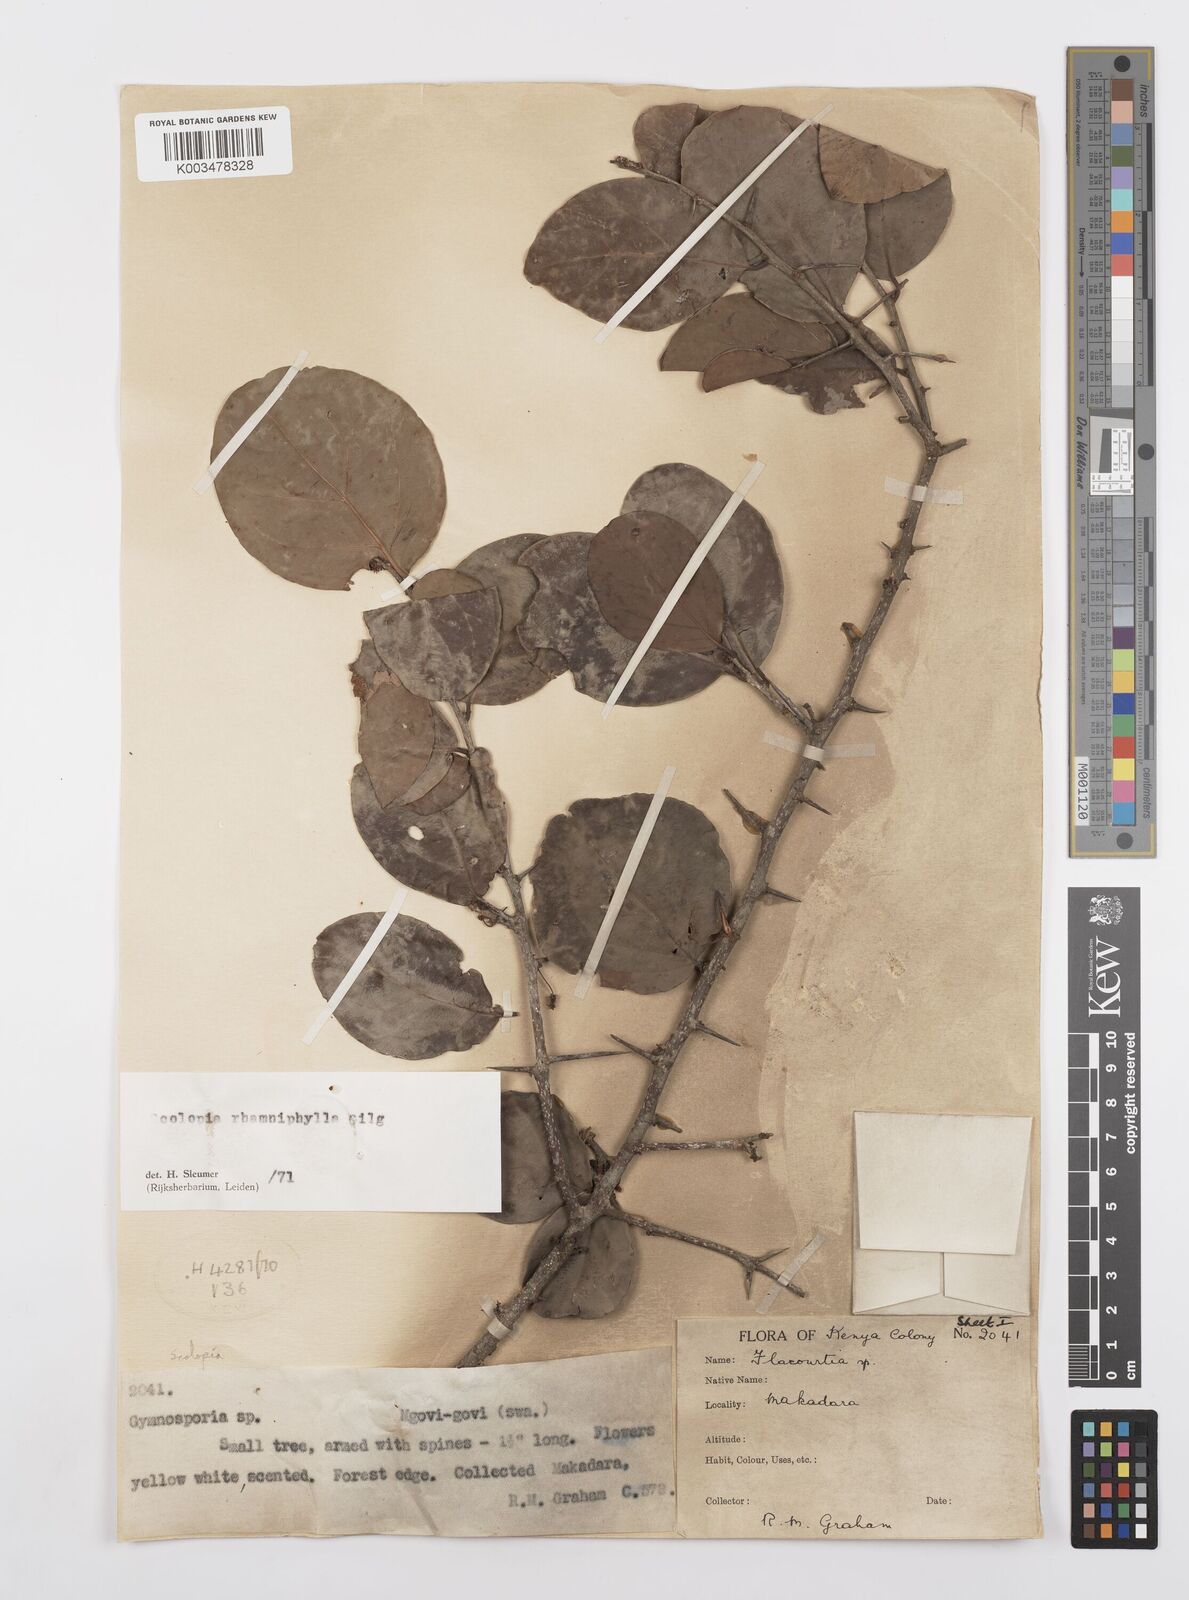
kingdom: Plantae
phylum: Tracheophyta
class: Magnoliopsida
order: Malpighiales
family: Salicaceae
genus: Scolopia
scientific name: Scolopia rhamniphylla
